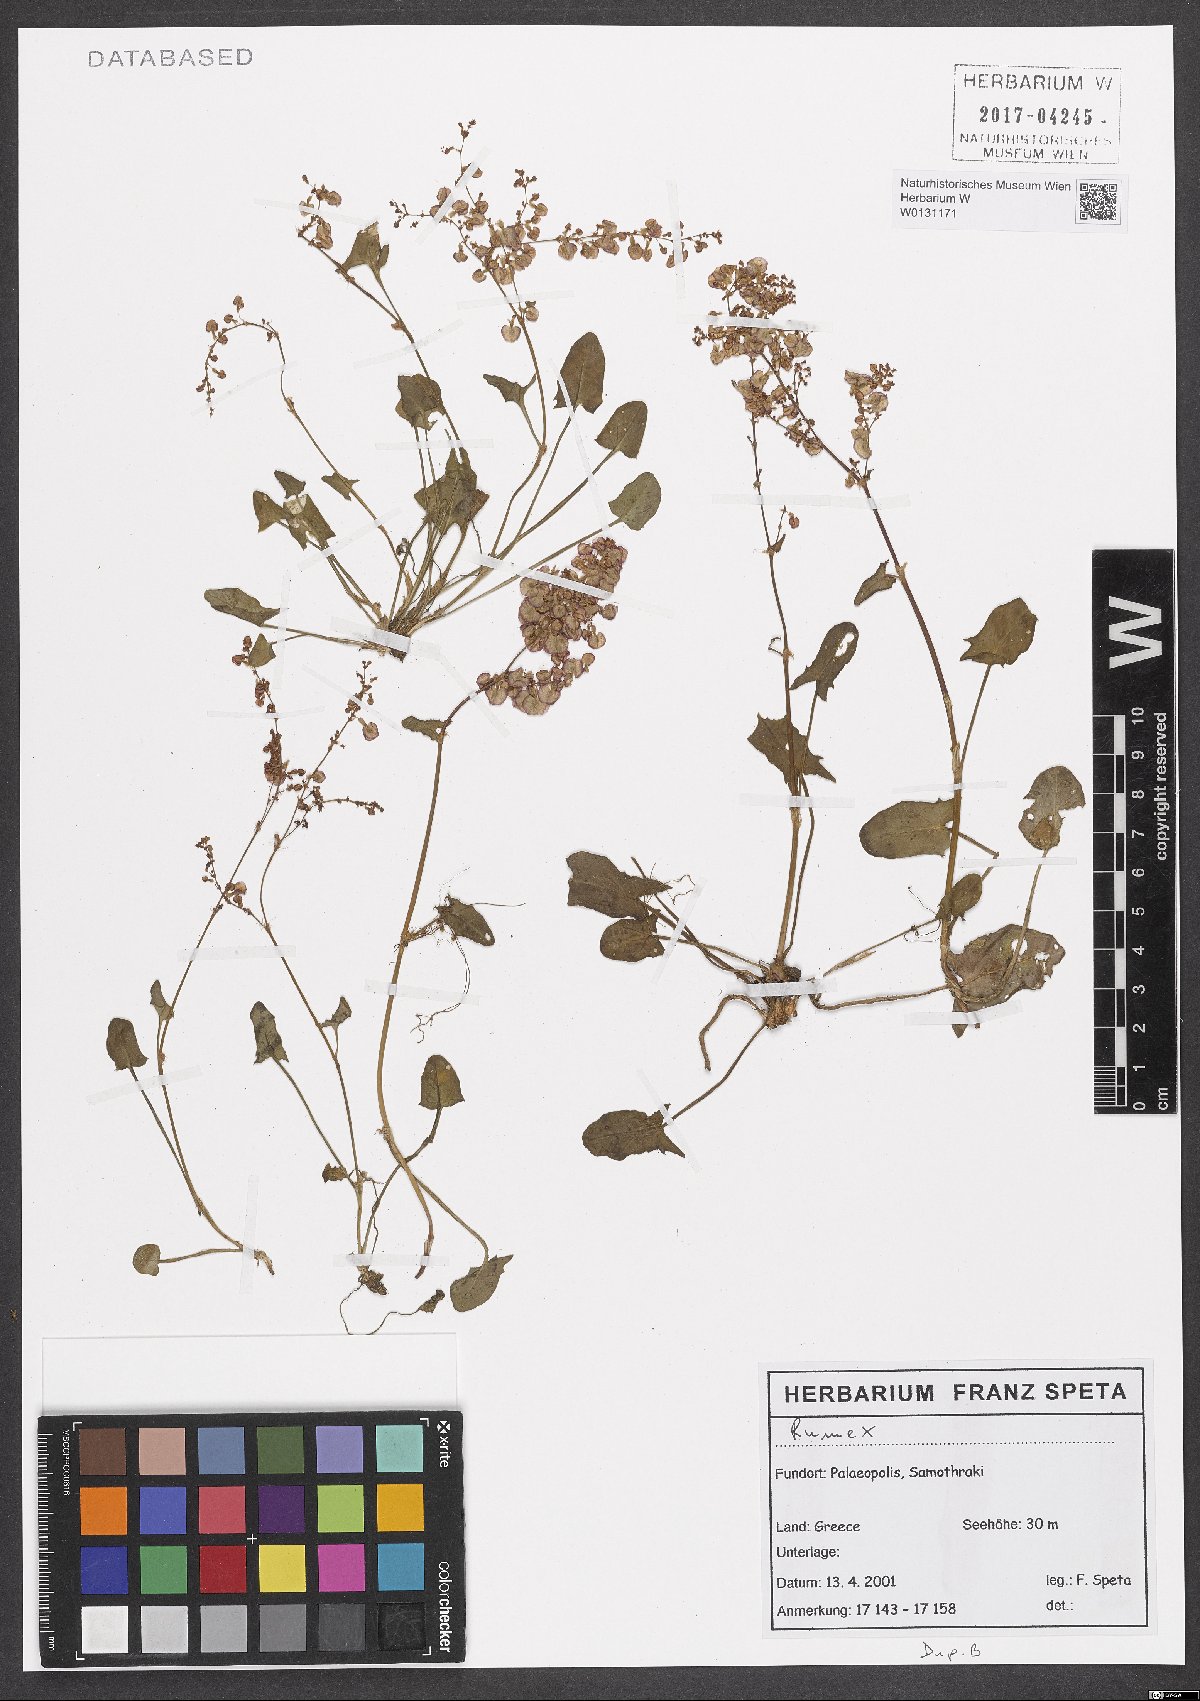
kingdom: Plantae
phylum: Tracheophyta
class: Magnoliopsida
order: Caryophyllales
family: Polygonaceae
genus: Rumex
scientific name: Rumex
